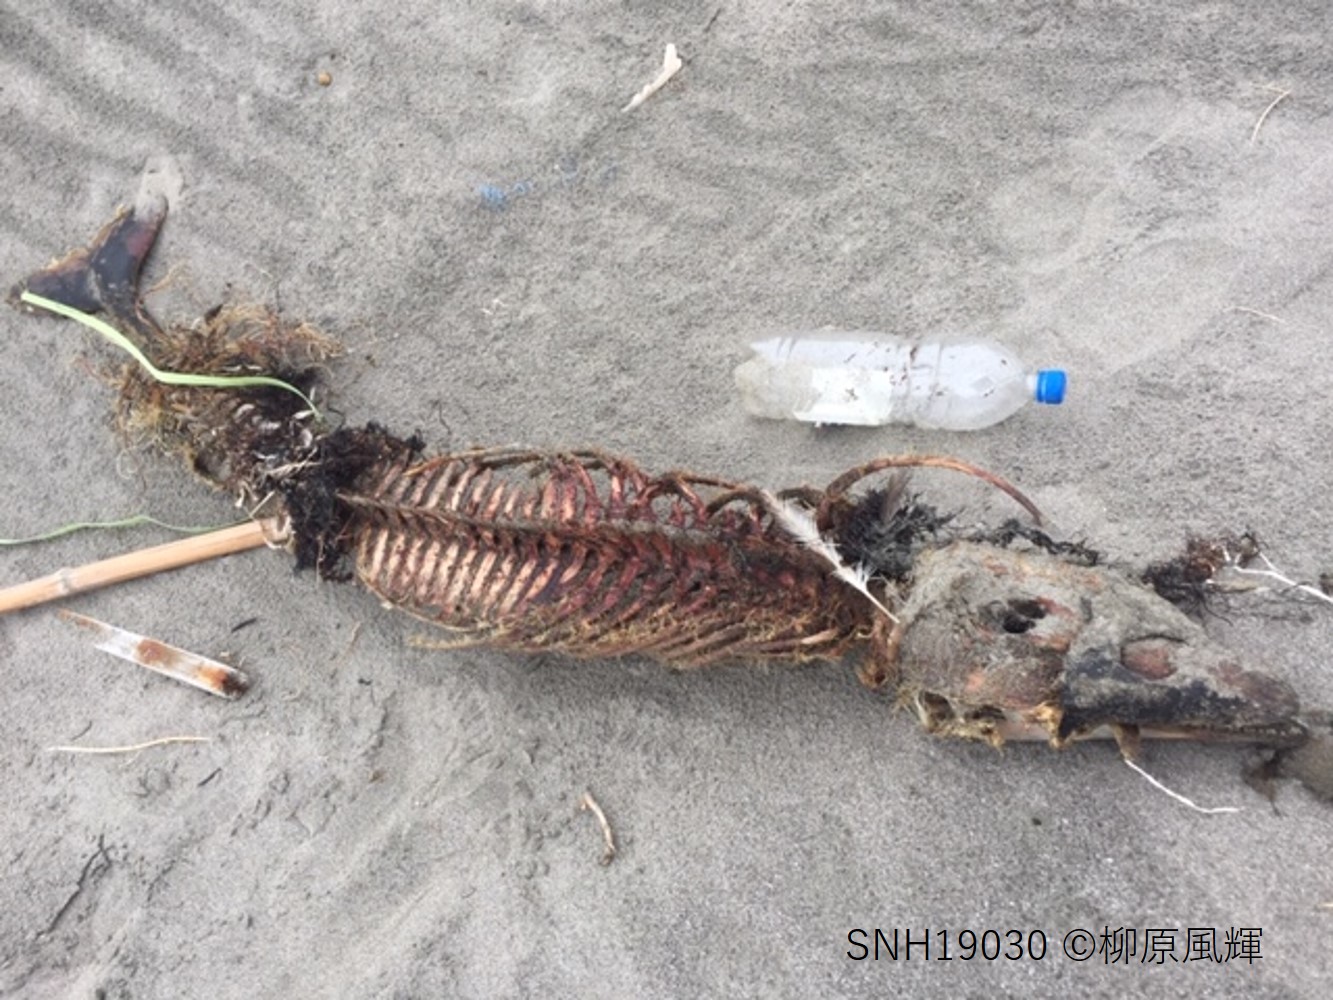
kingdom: Animalia
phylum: Chordata
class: Mammalia
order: Cetacea
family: Phocoenidae
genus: Phocoena
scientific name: Phocoena phocoena
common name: Harbour porpoise
